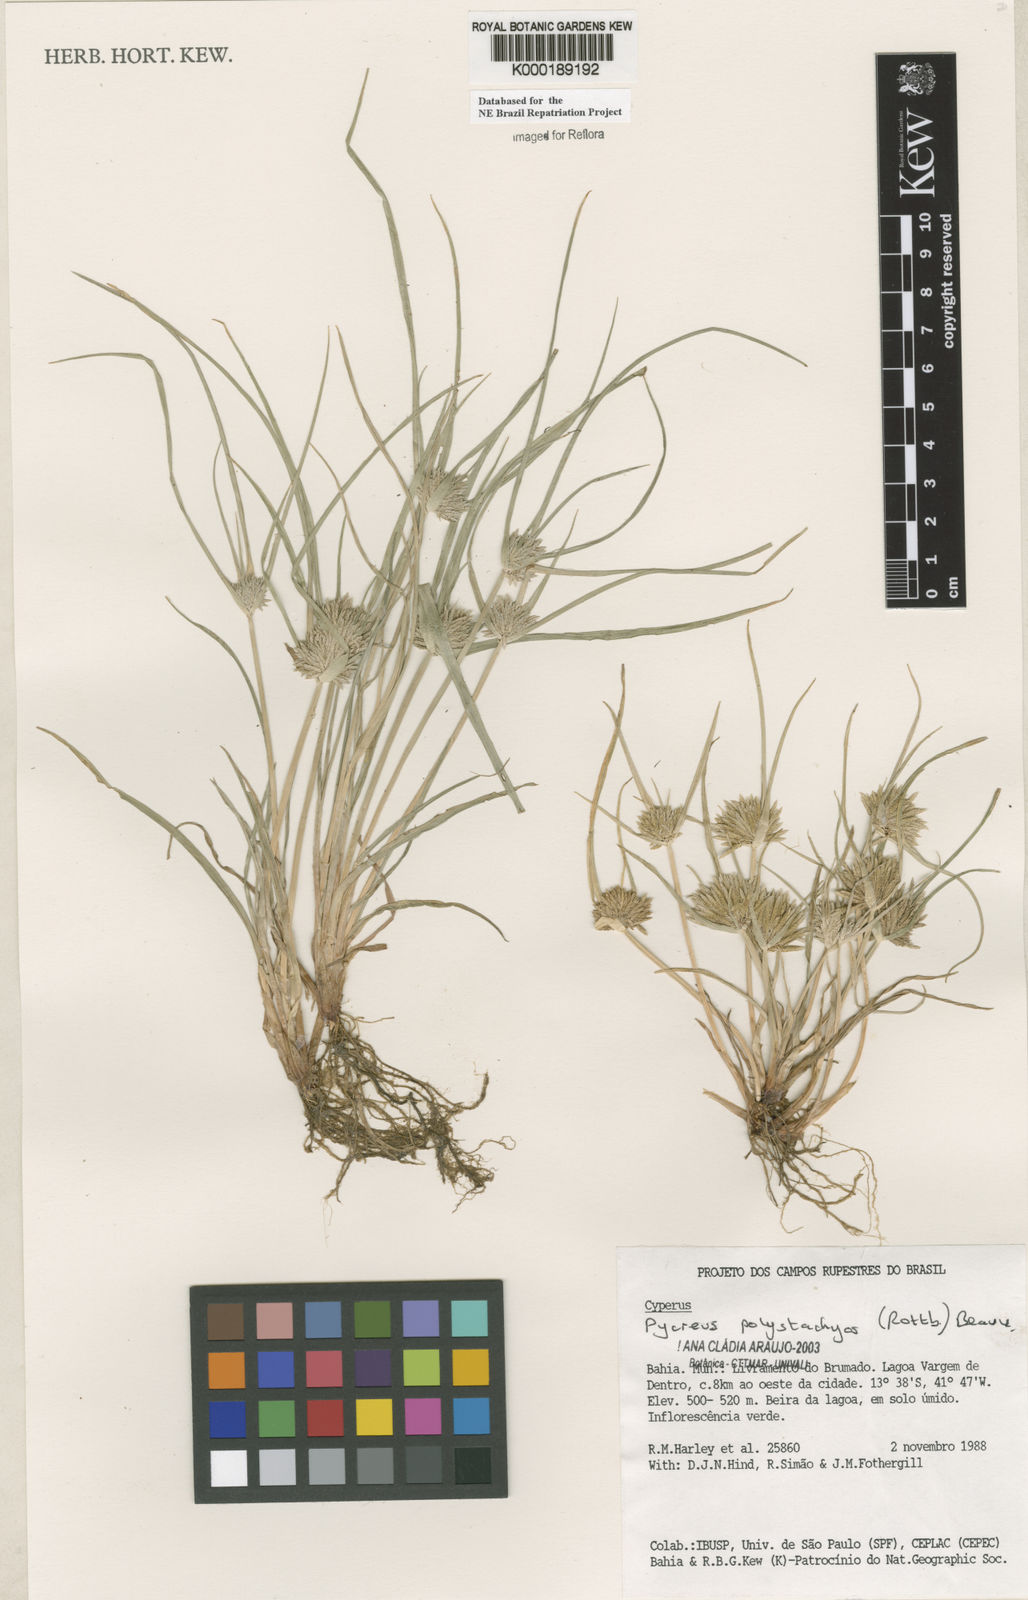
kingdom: Plantae
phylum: Tracheophyta
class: Liliopsida
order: Poales
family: Cyperaceae
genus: Cyperus
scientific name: Cyperus polystachyos
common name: Bunchy flat sedge
